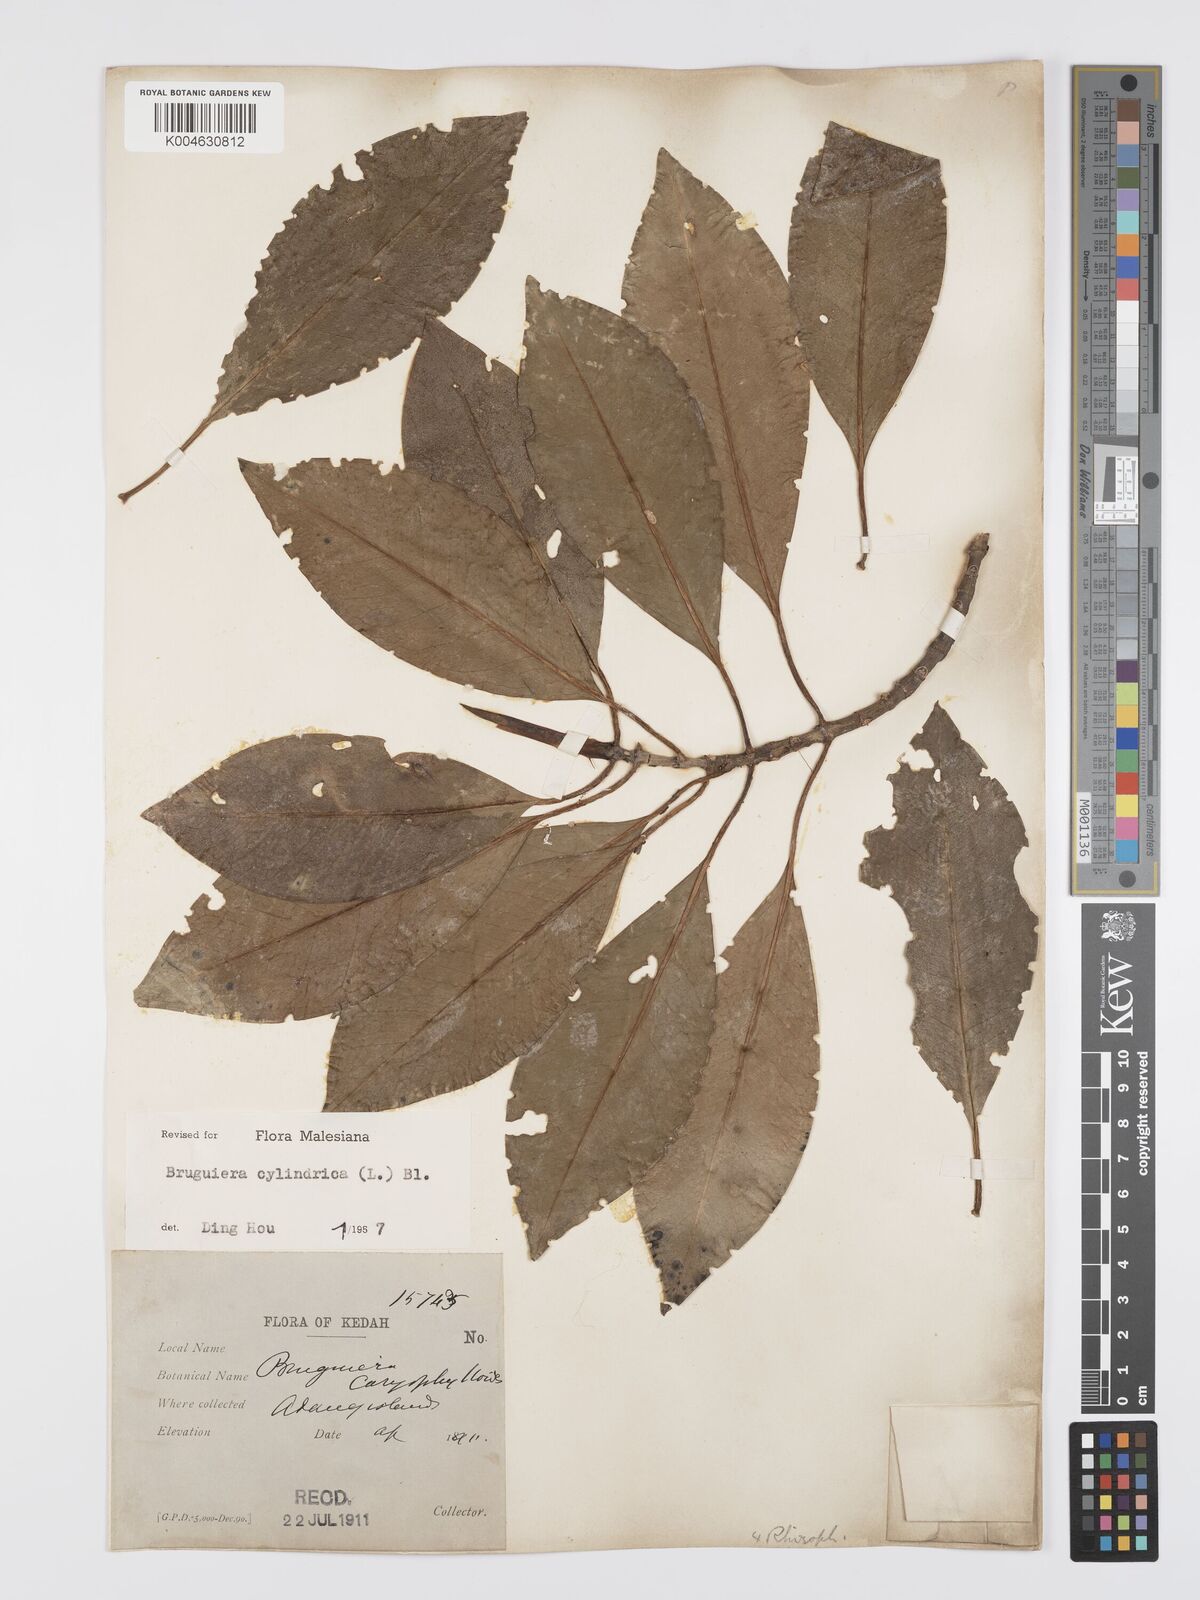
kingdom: Plantae
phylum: Tracheophyta
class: Magnoliopsida
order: Malpighiales
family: Rhizophoraceae
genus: Bruguiera
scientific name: Bruguiera cylindrica
